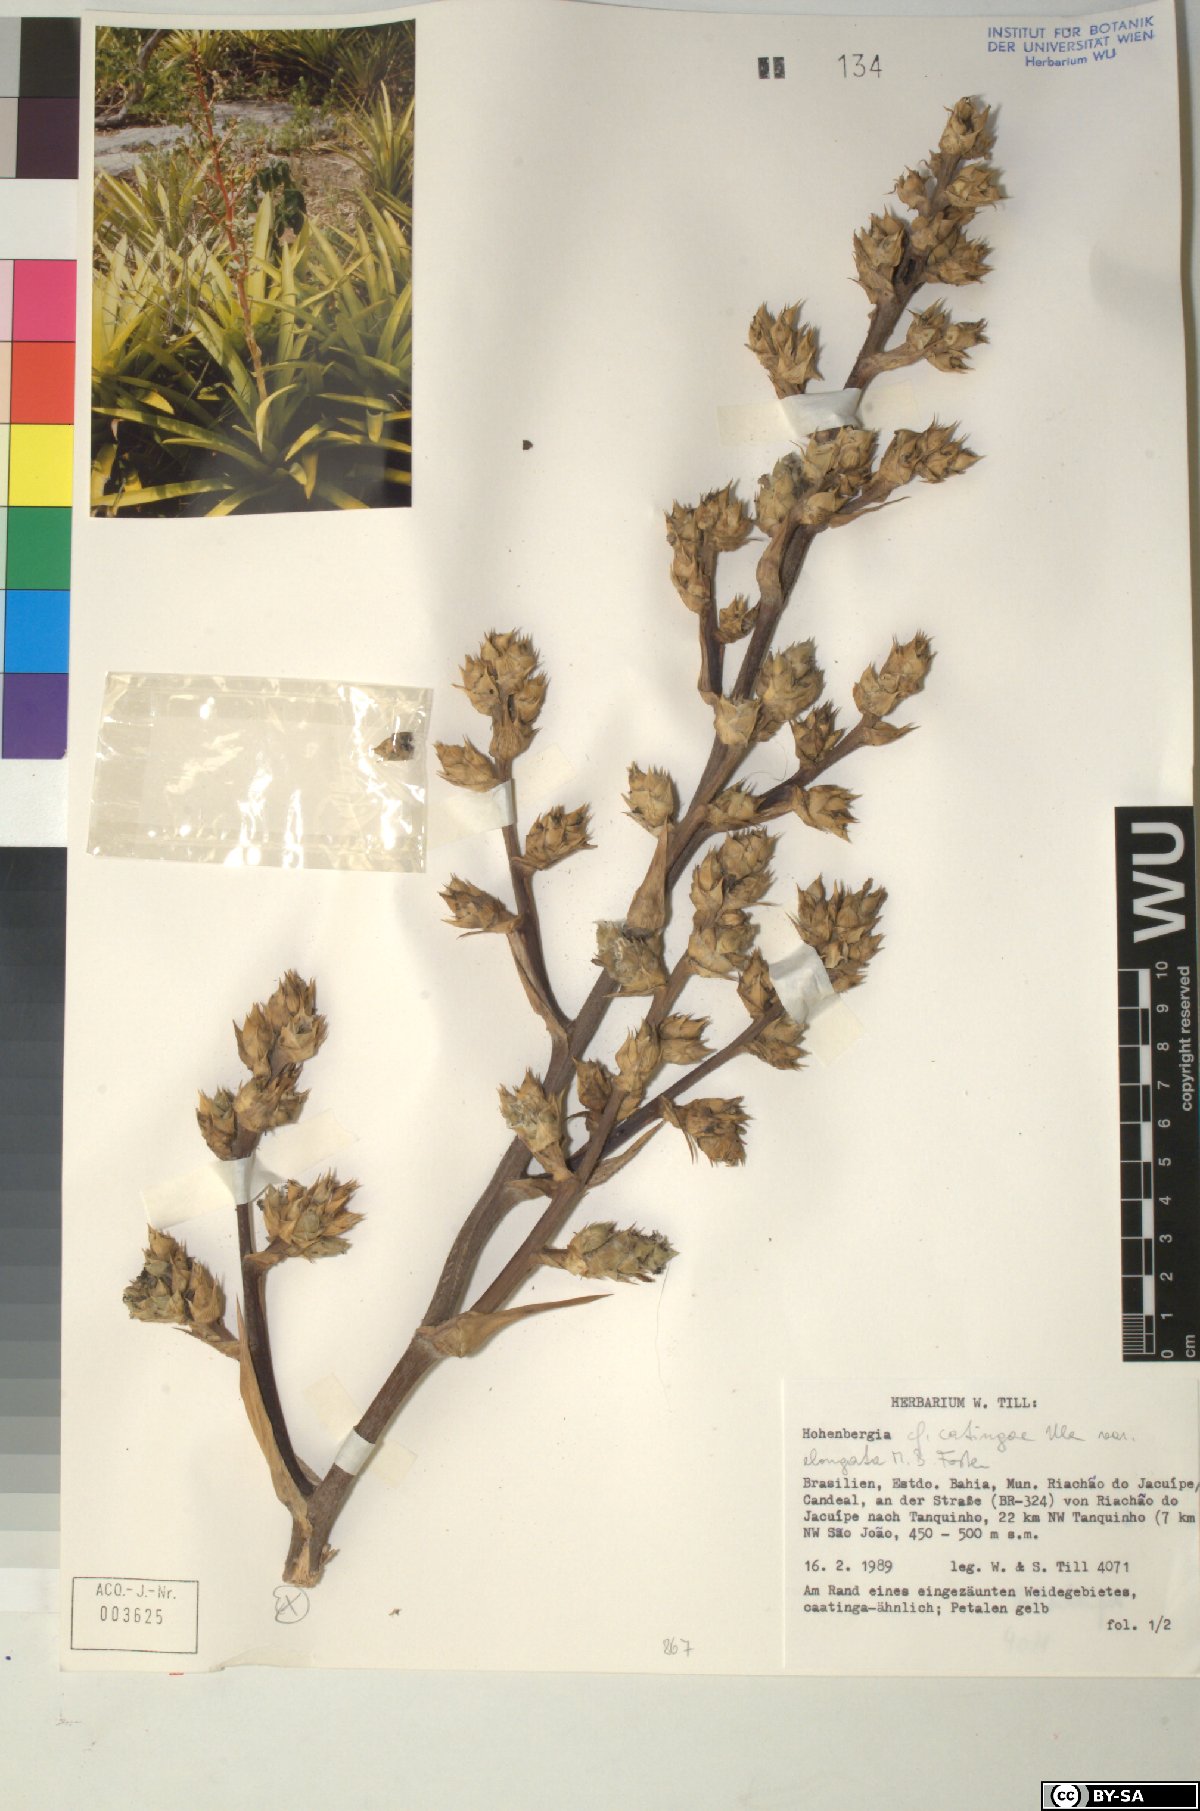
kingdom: Plantae
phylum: Tracheophyta
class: Liliopsida
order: Poales
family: Bromeliaceae
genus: Hohenbergia
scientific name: Hohenbergia
